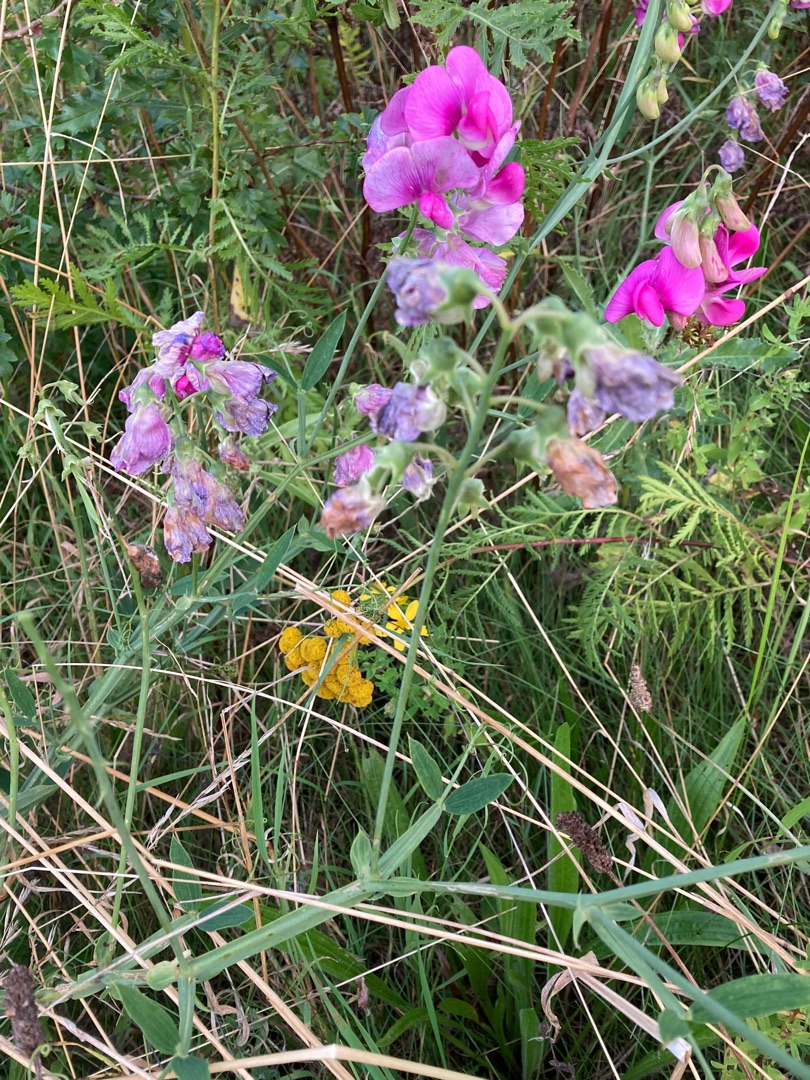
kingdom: Plantae
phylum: Tracheophyta
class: Magnoliopsida
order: Fabales
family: Fabaceae
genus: Lathyrus
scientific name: Lathyrus latifolius
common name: Flerårig ærteblomst
